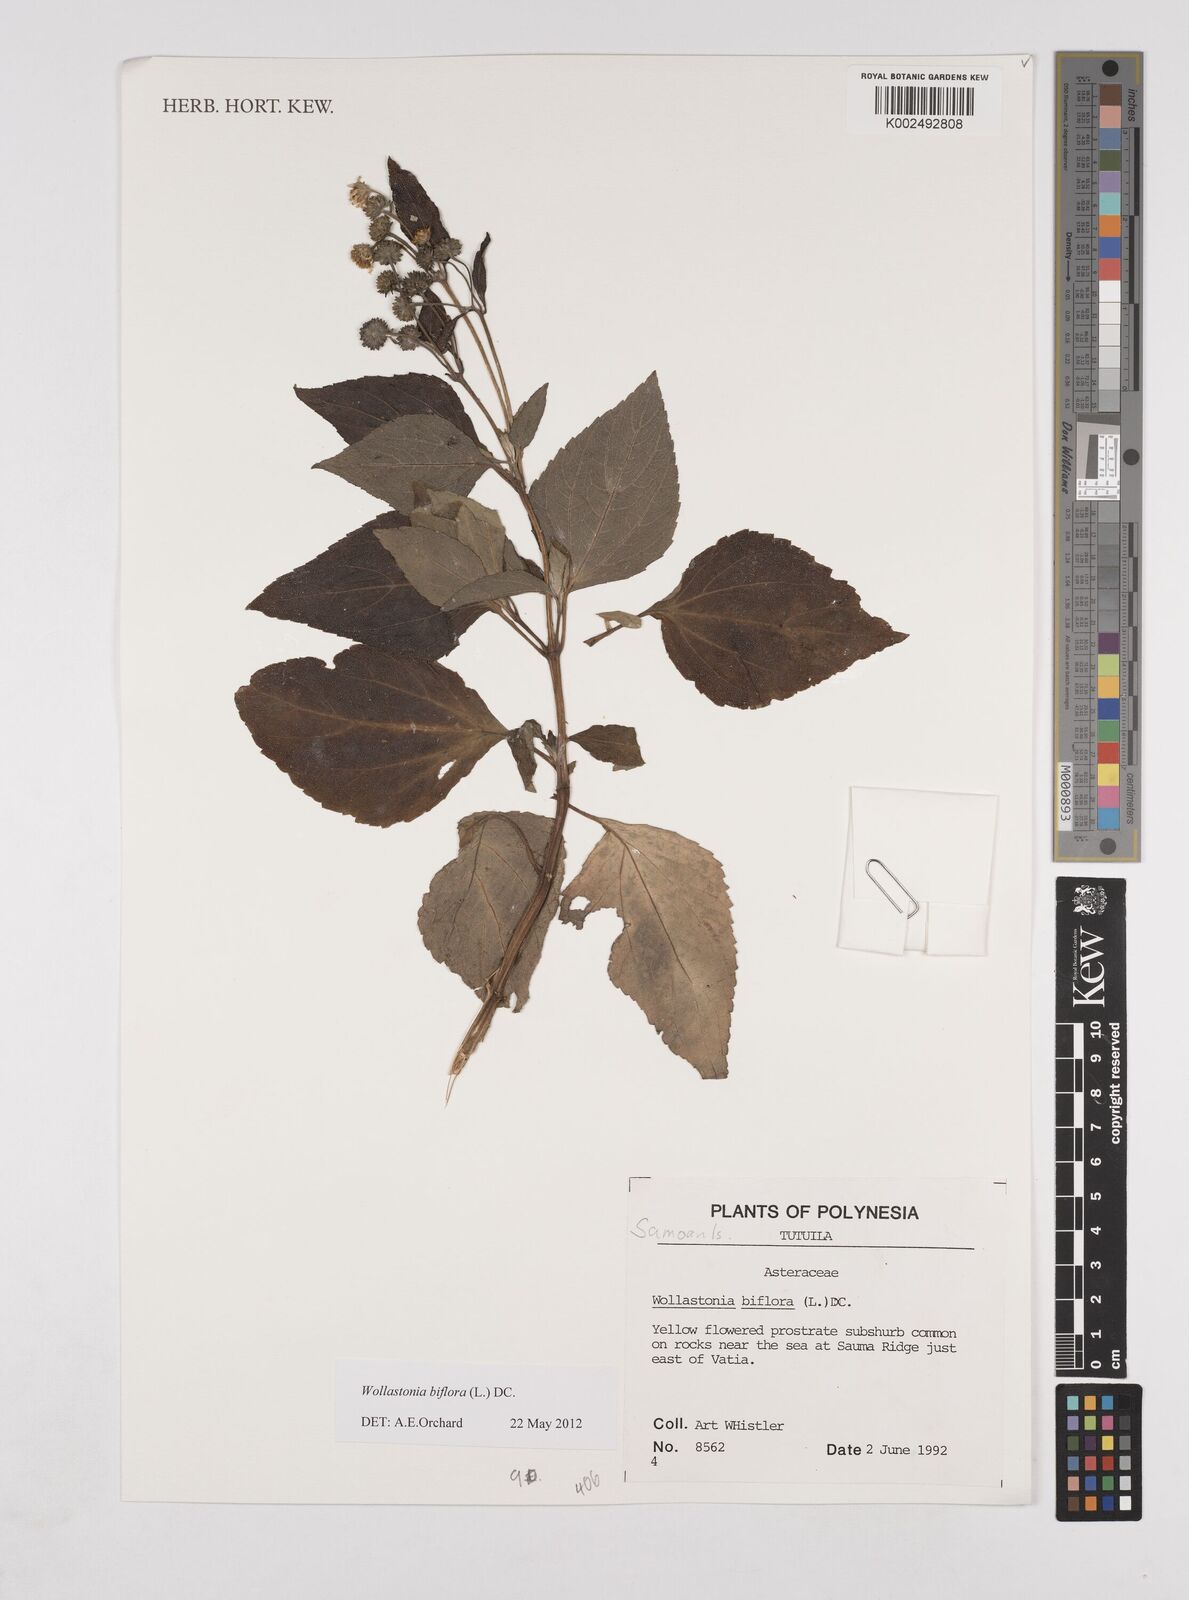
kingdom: Plantae
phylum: Tracheophyta
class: Magnoliopsida
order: Asterales
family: Asteraceae
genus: Wollastonia
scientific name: Wollastonia biflora
